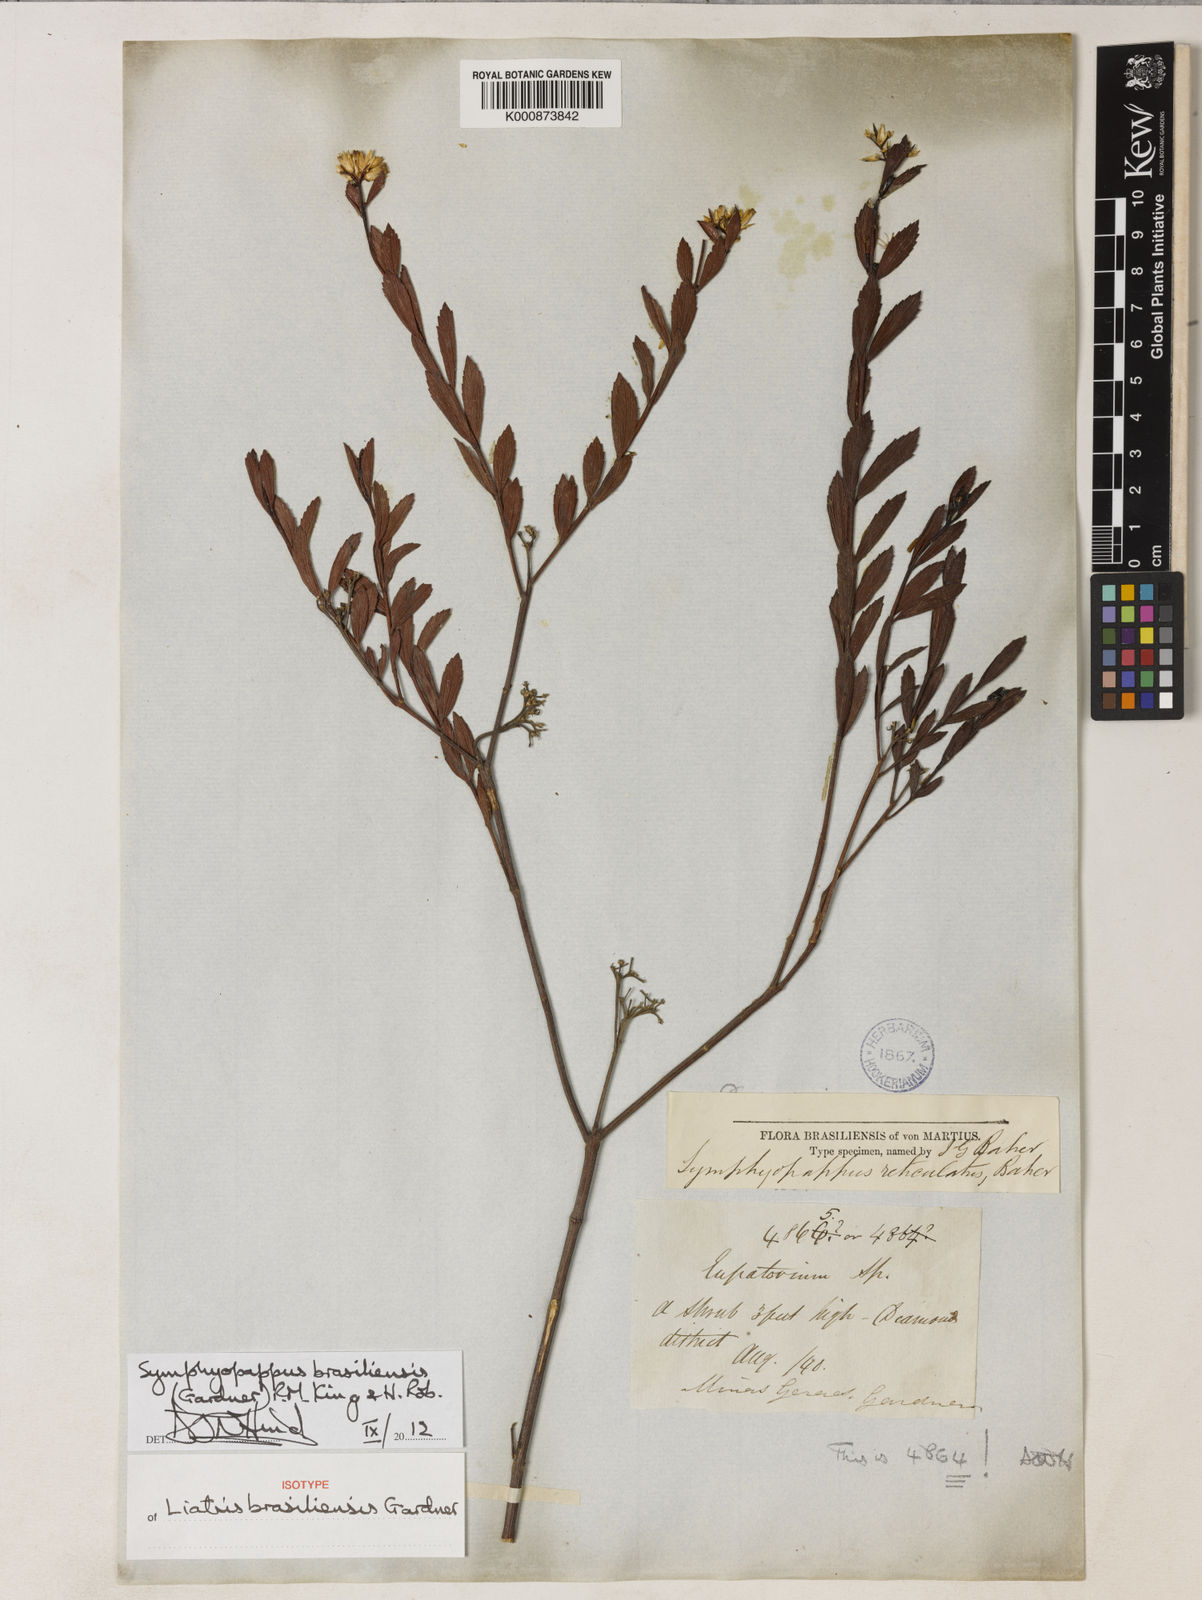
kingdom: Plantae
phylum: Tracheophyta
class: Magnoliopsida
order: Asterales
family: Asteraceae
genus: Symphyopappus
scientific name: Symphyopappus brasiliensis
